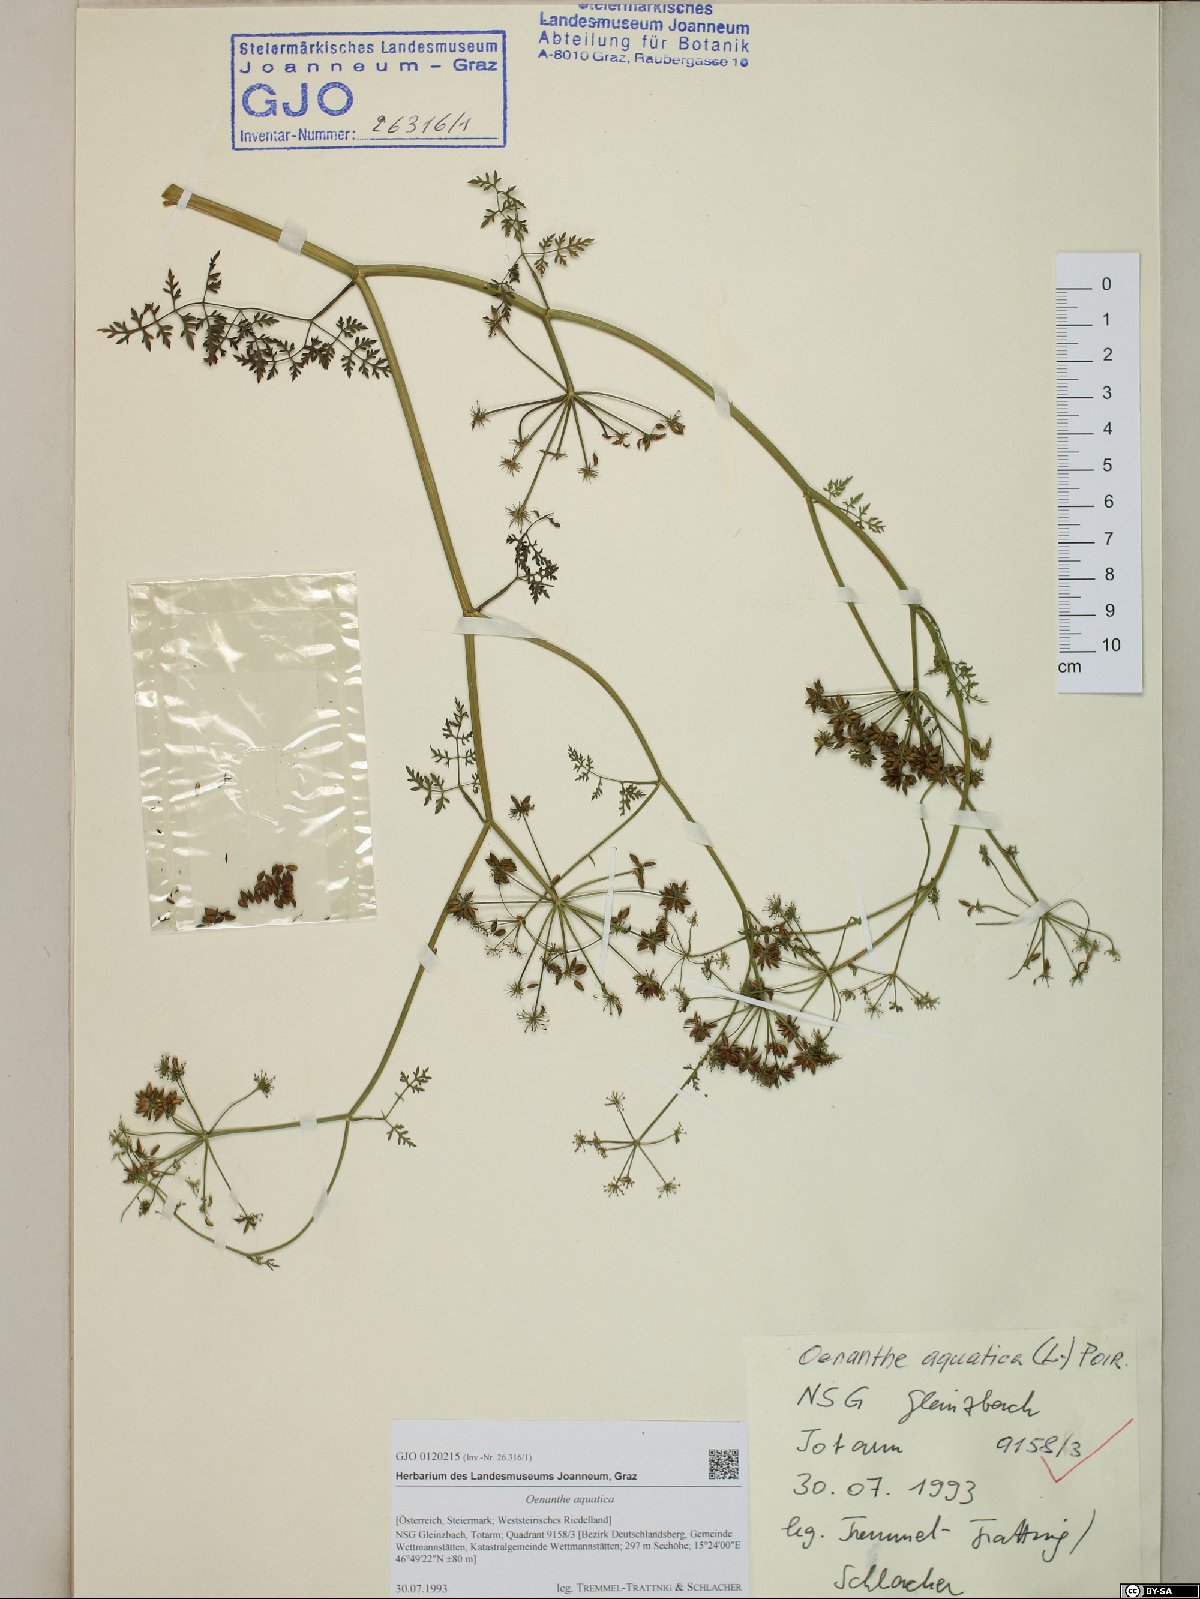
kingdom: Plantae
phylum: Tracheophyta
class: Magnoliopsida
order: Apiales
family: Apiaceae
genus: Oenanthe
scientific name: Oenanthe aquatica
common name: Fine-leaved water-dropwort
